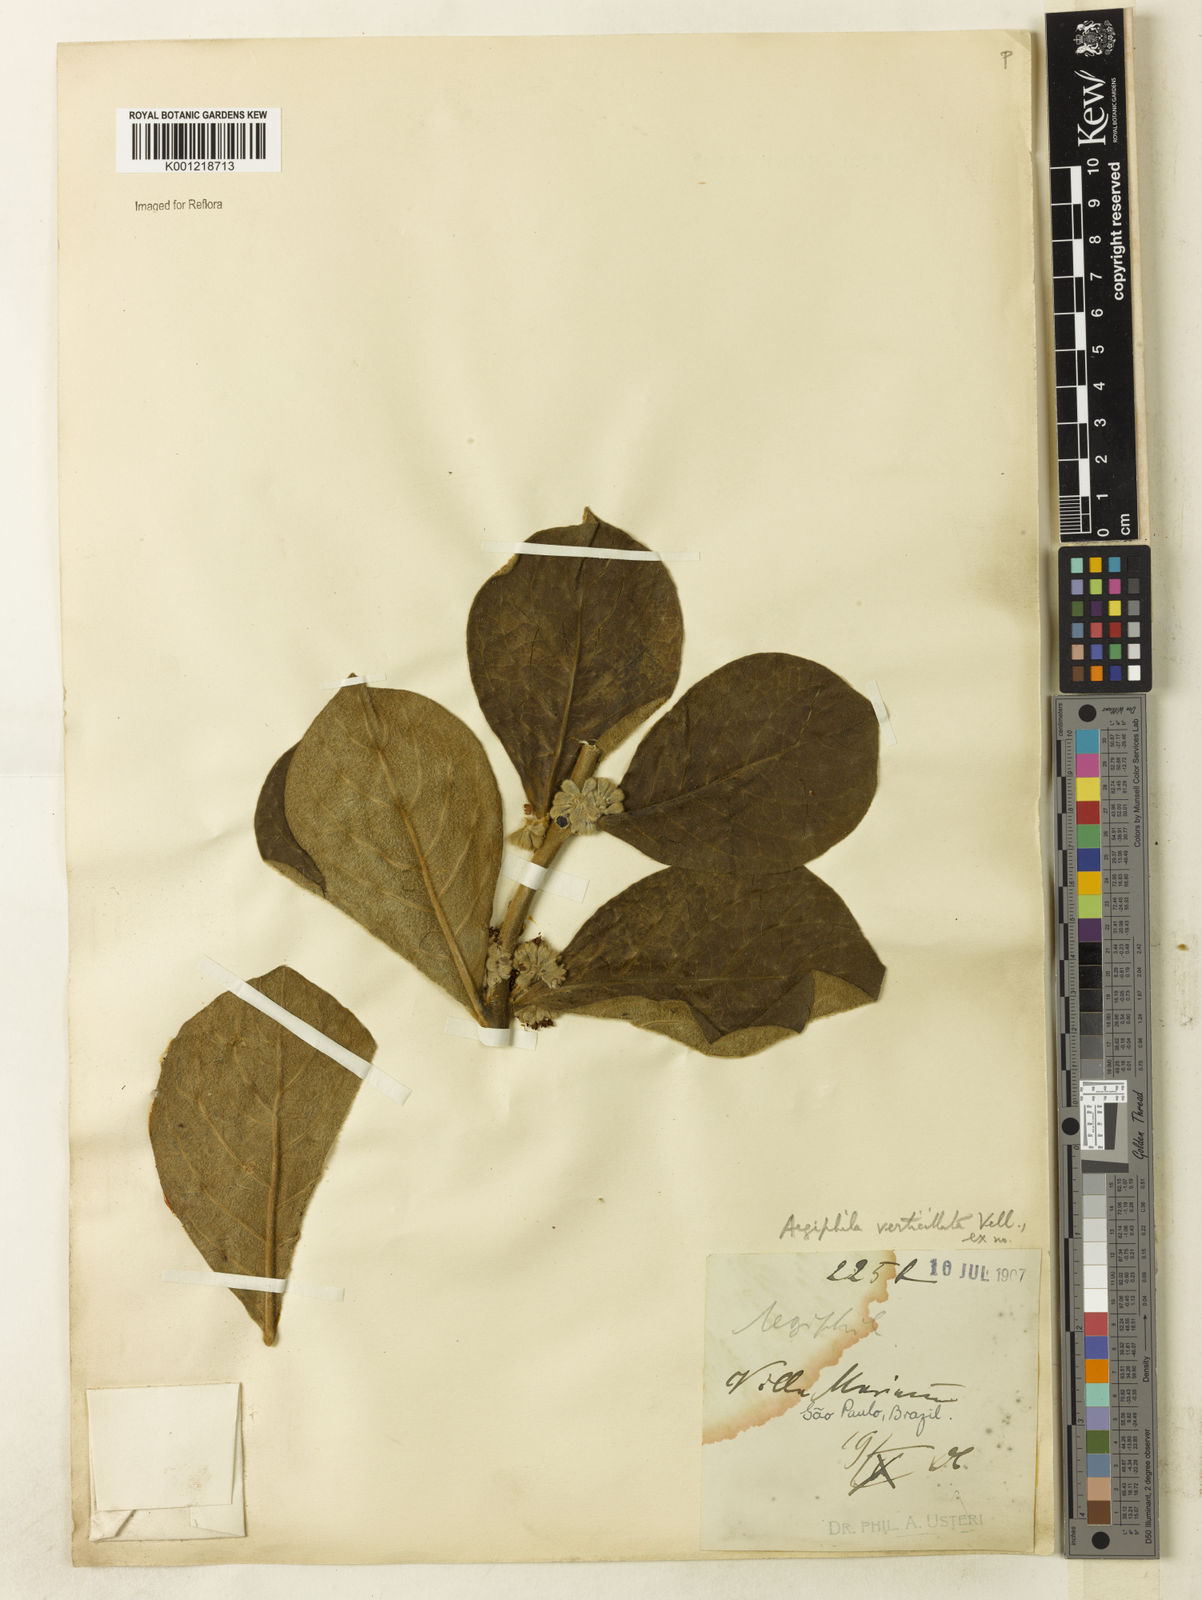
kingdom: Plantae
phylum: Tracheophyta
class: Magnoliopsida
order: Lamiales
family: Lamiaceae
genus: Aegiphila
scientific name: Aegiphila verticillata
